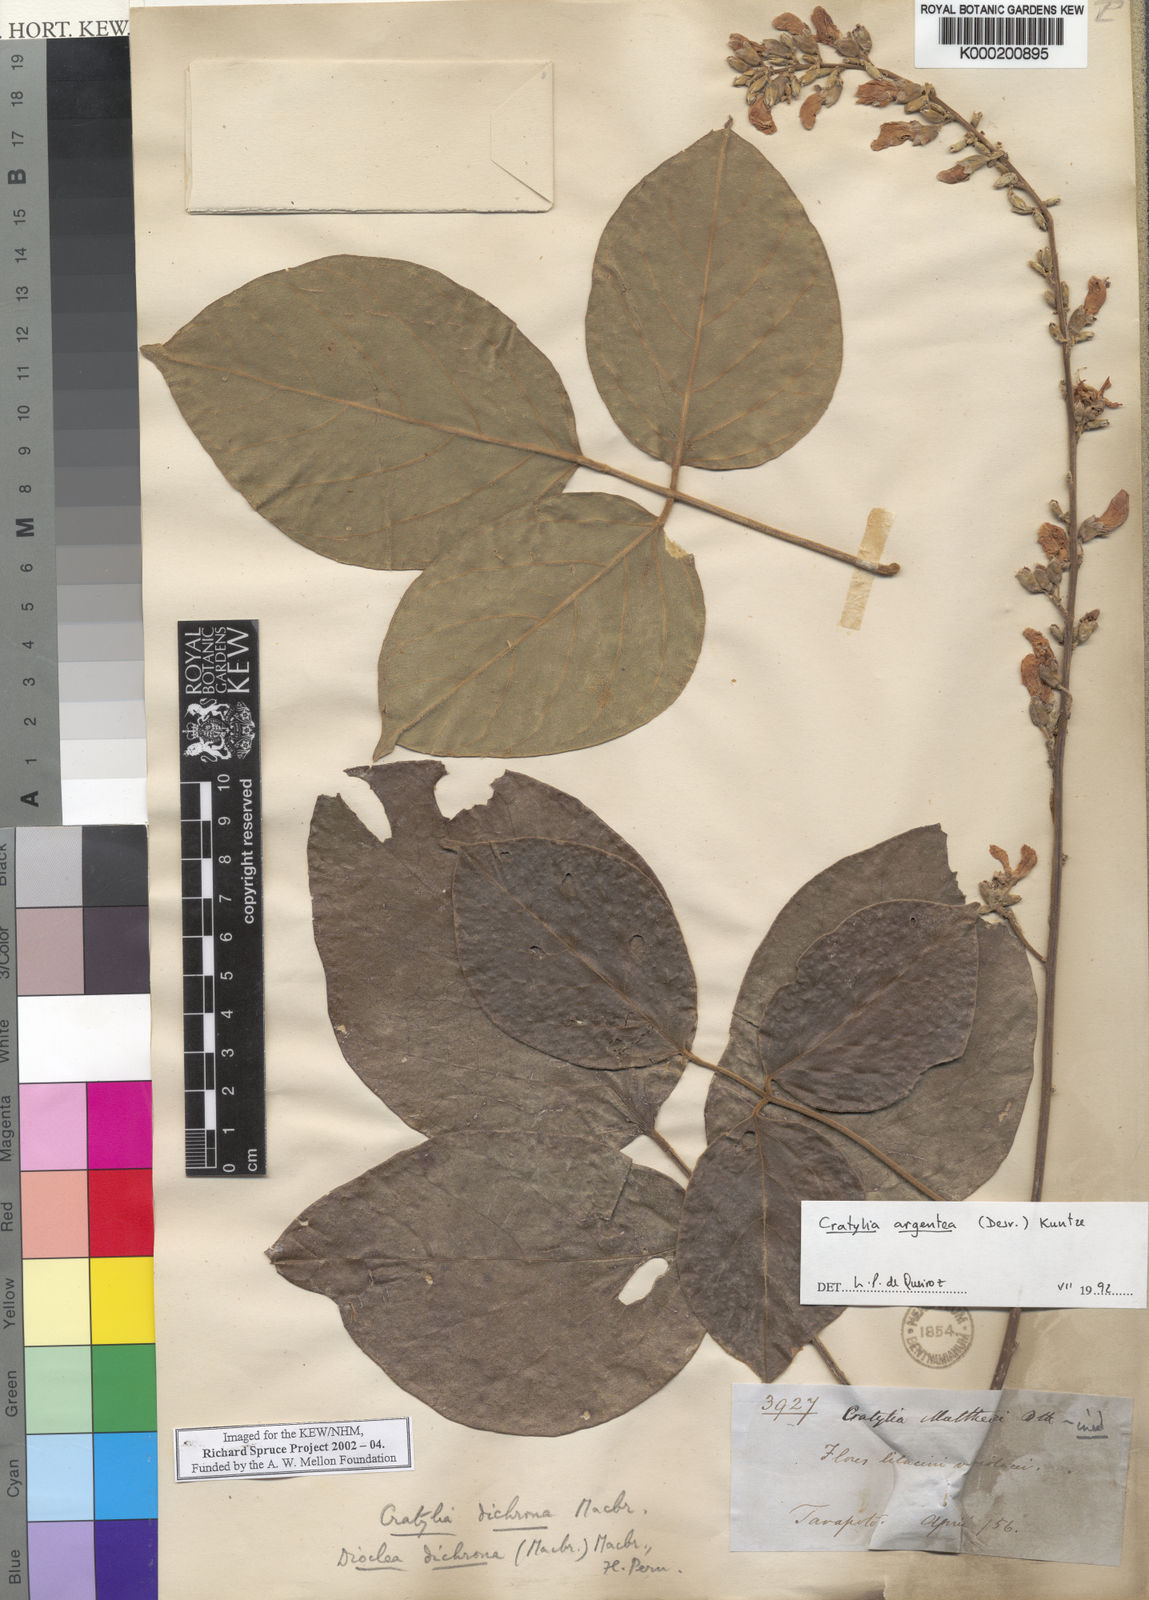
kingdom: Plantae
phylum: Tracheophyta
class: Magnoliopsida
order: Fabales
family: Fabaceae
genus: Cratylia
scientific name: Cratylia argentea
